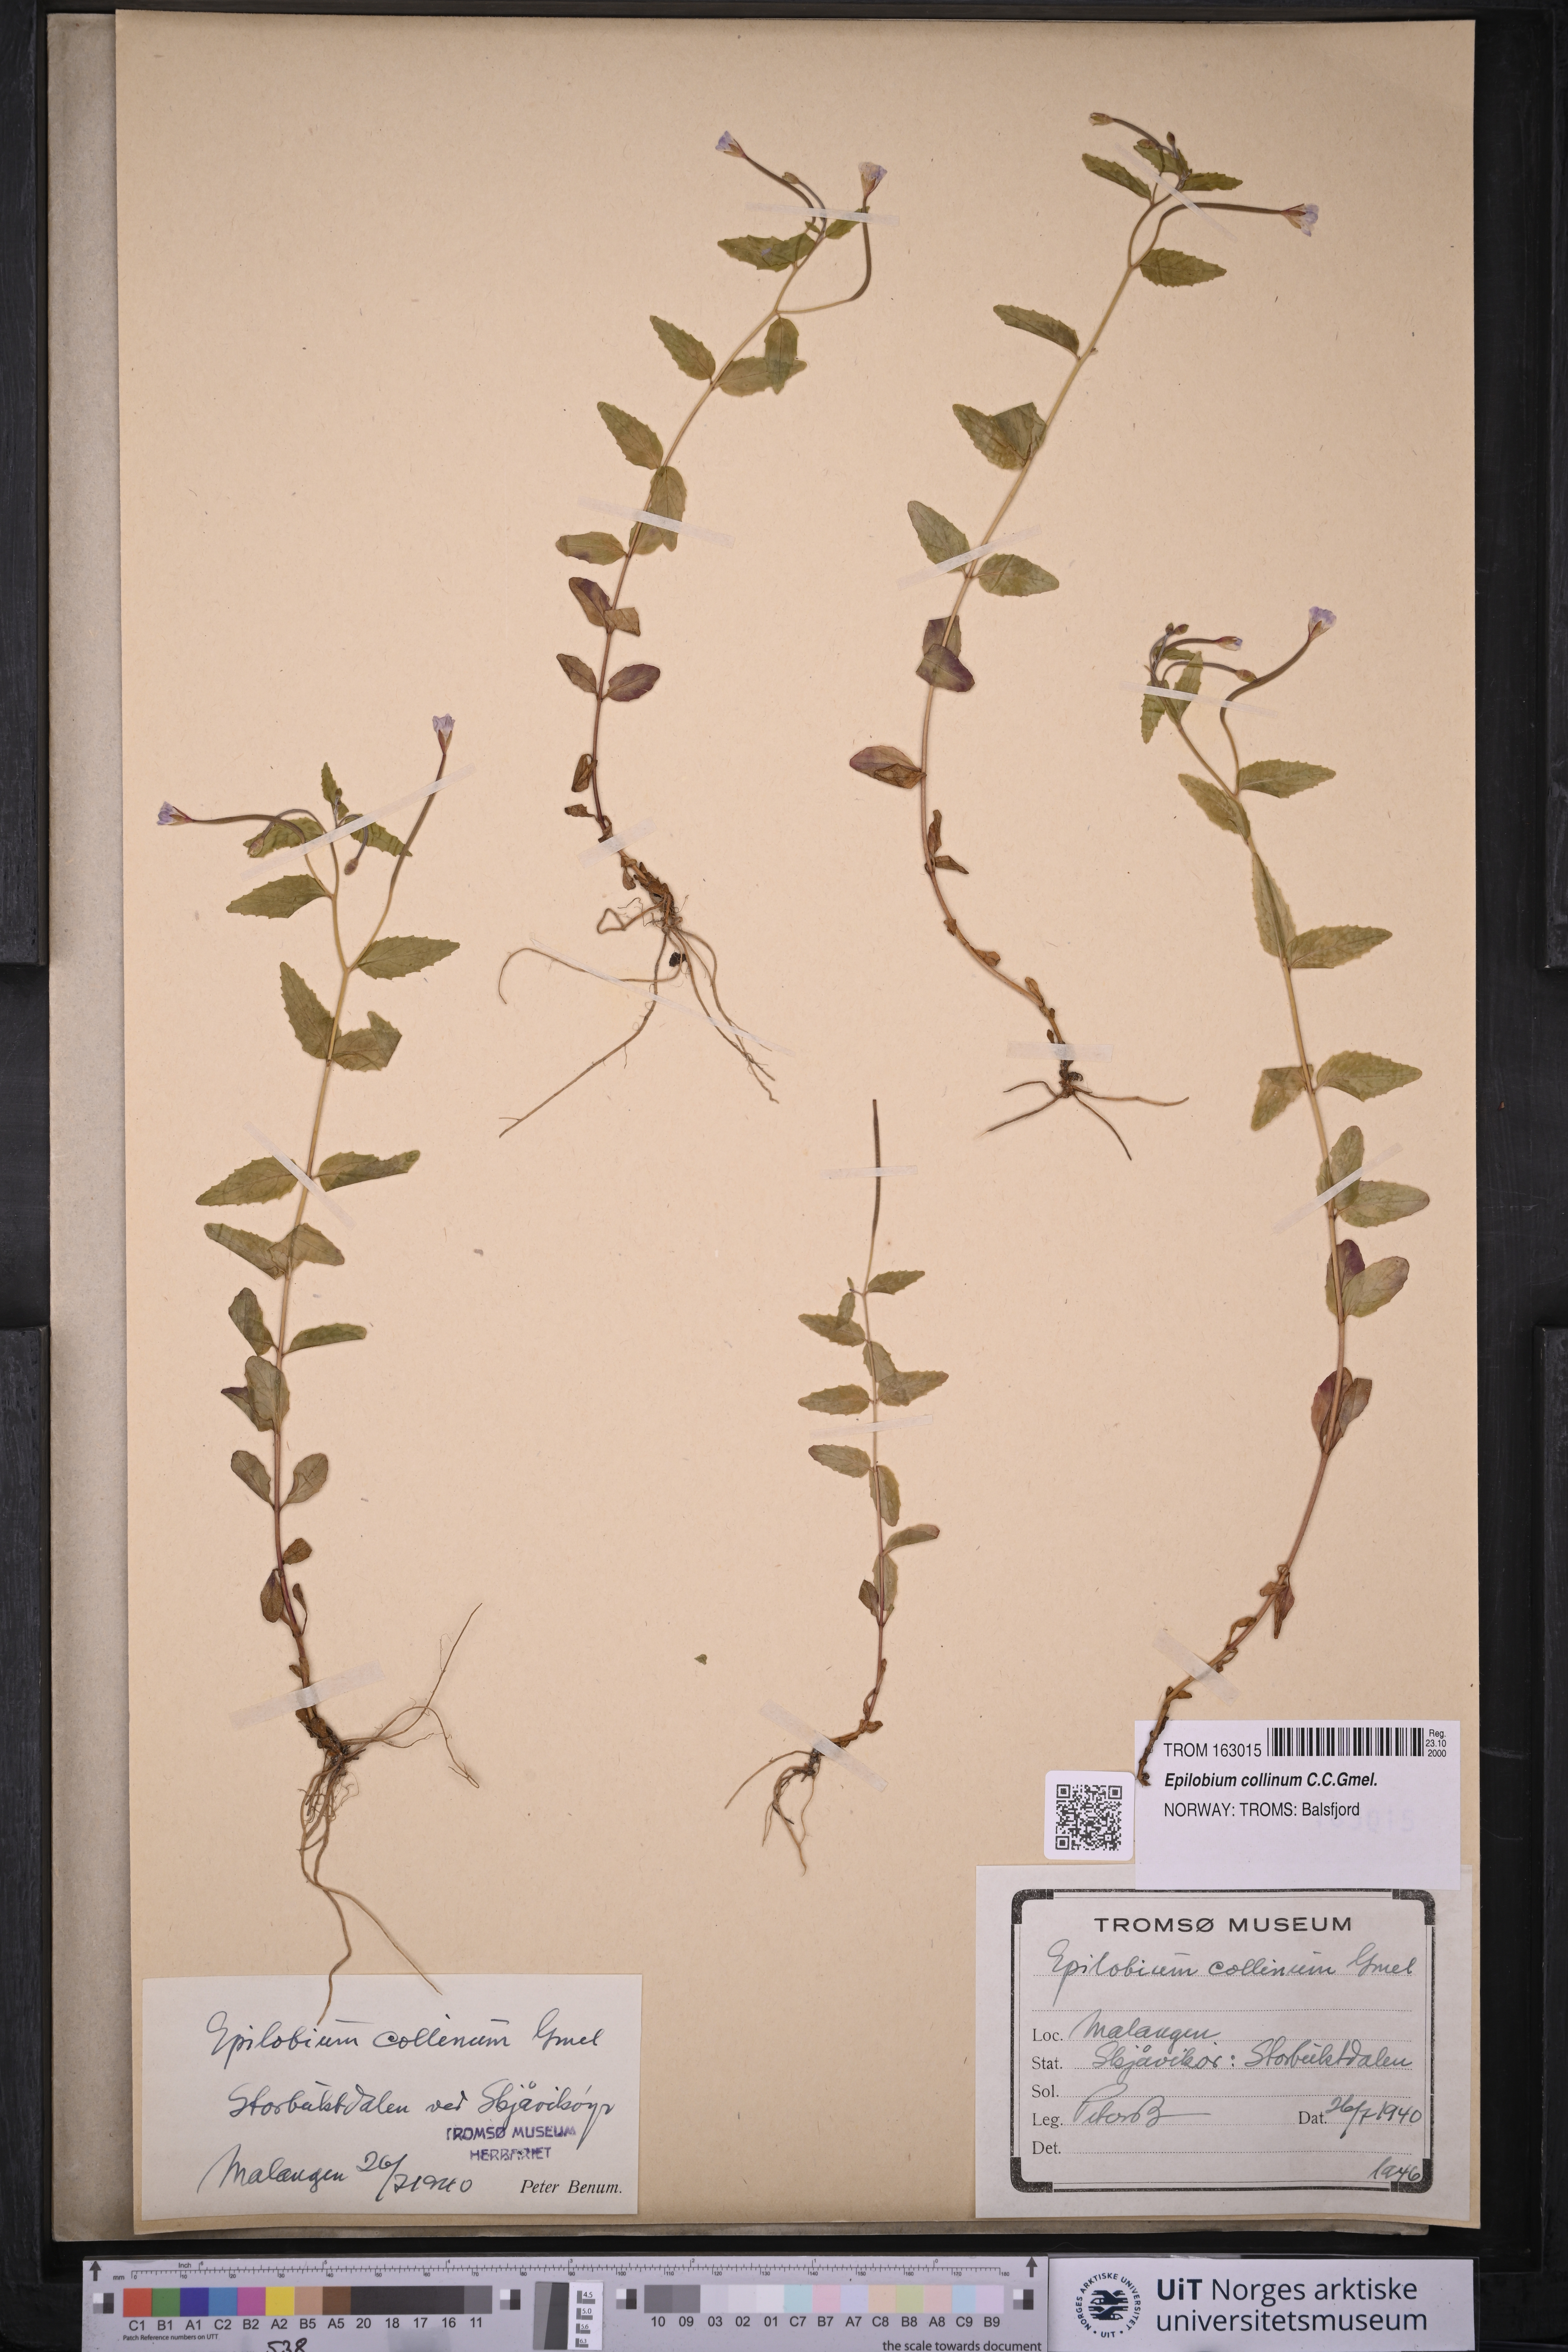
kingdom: Plantae
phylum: Tracheophyta
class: Magnoliopsida
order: Myrtales
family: Onagraceae
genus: Epilobium
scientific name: Epilobium collinum
